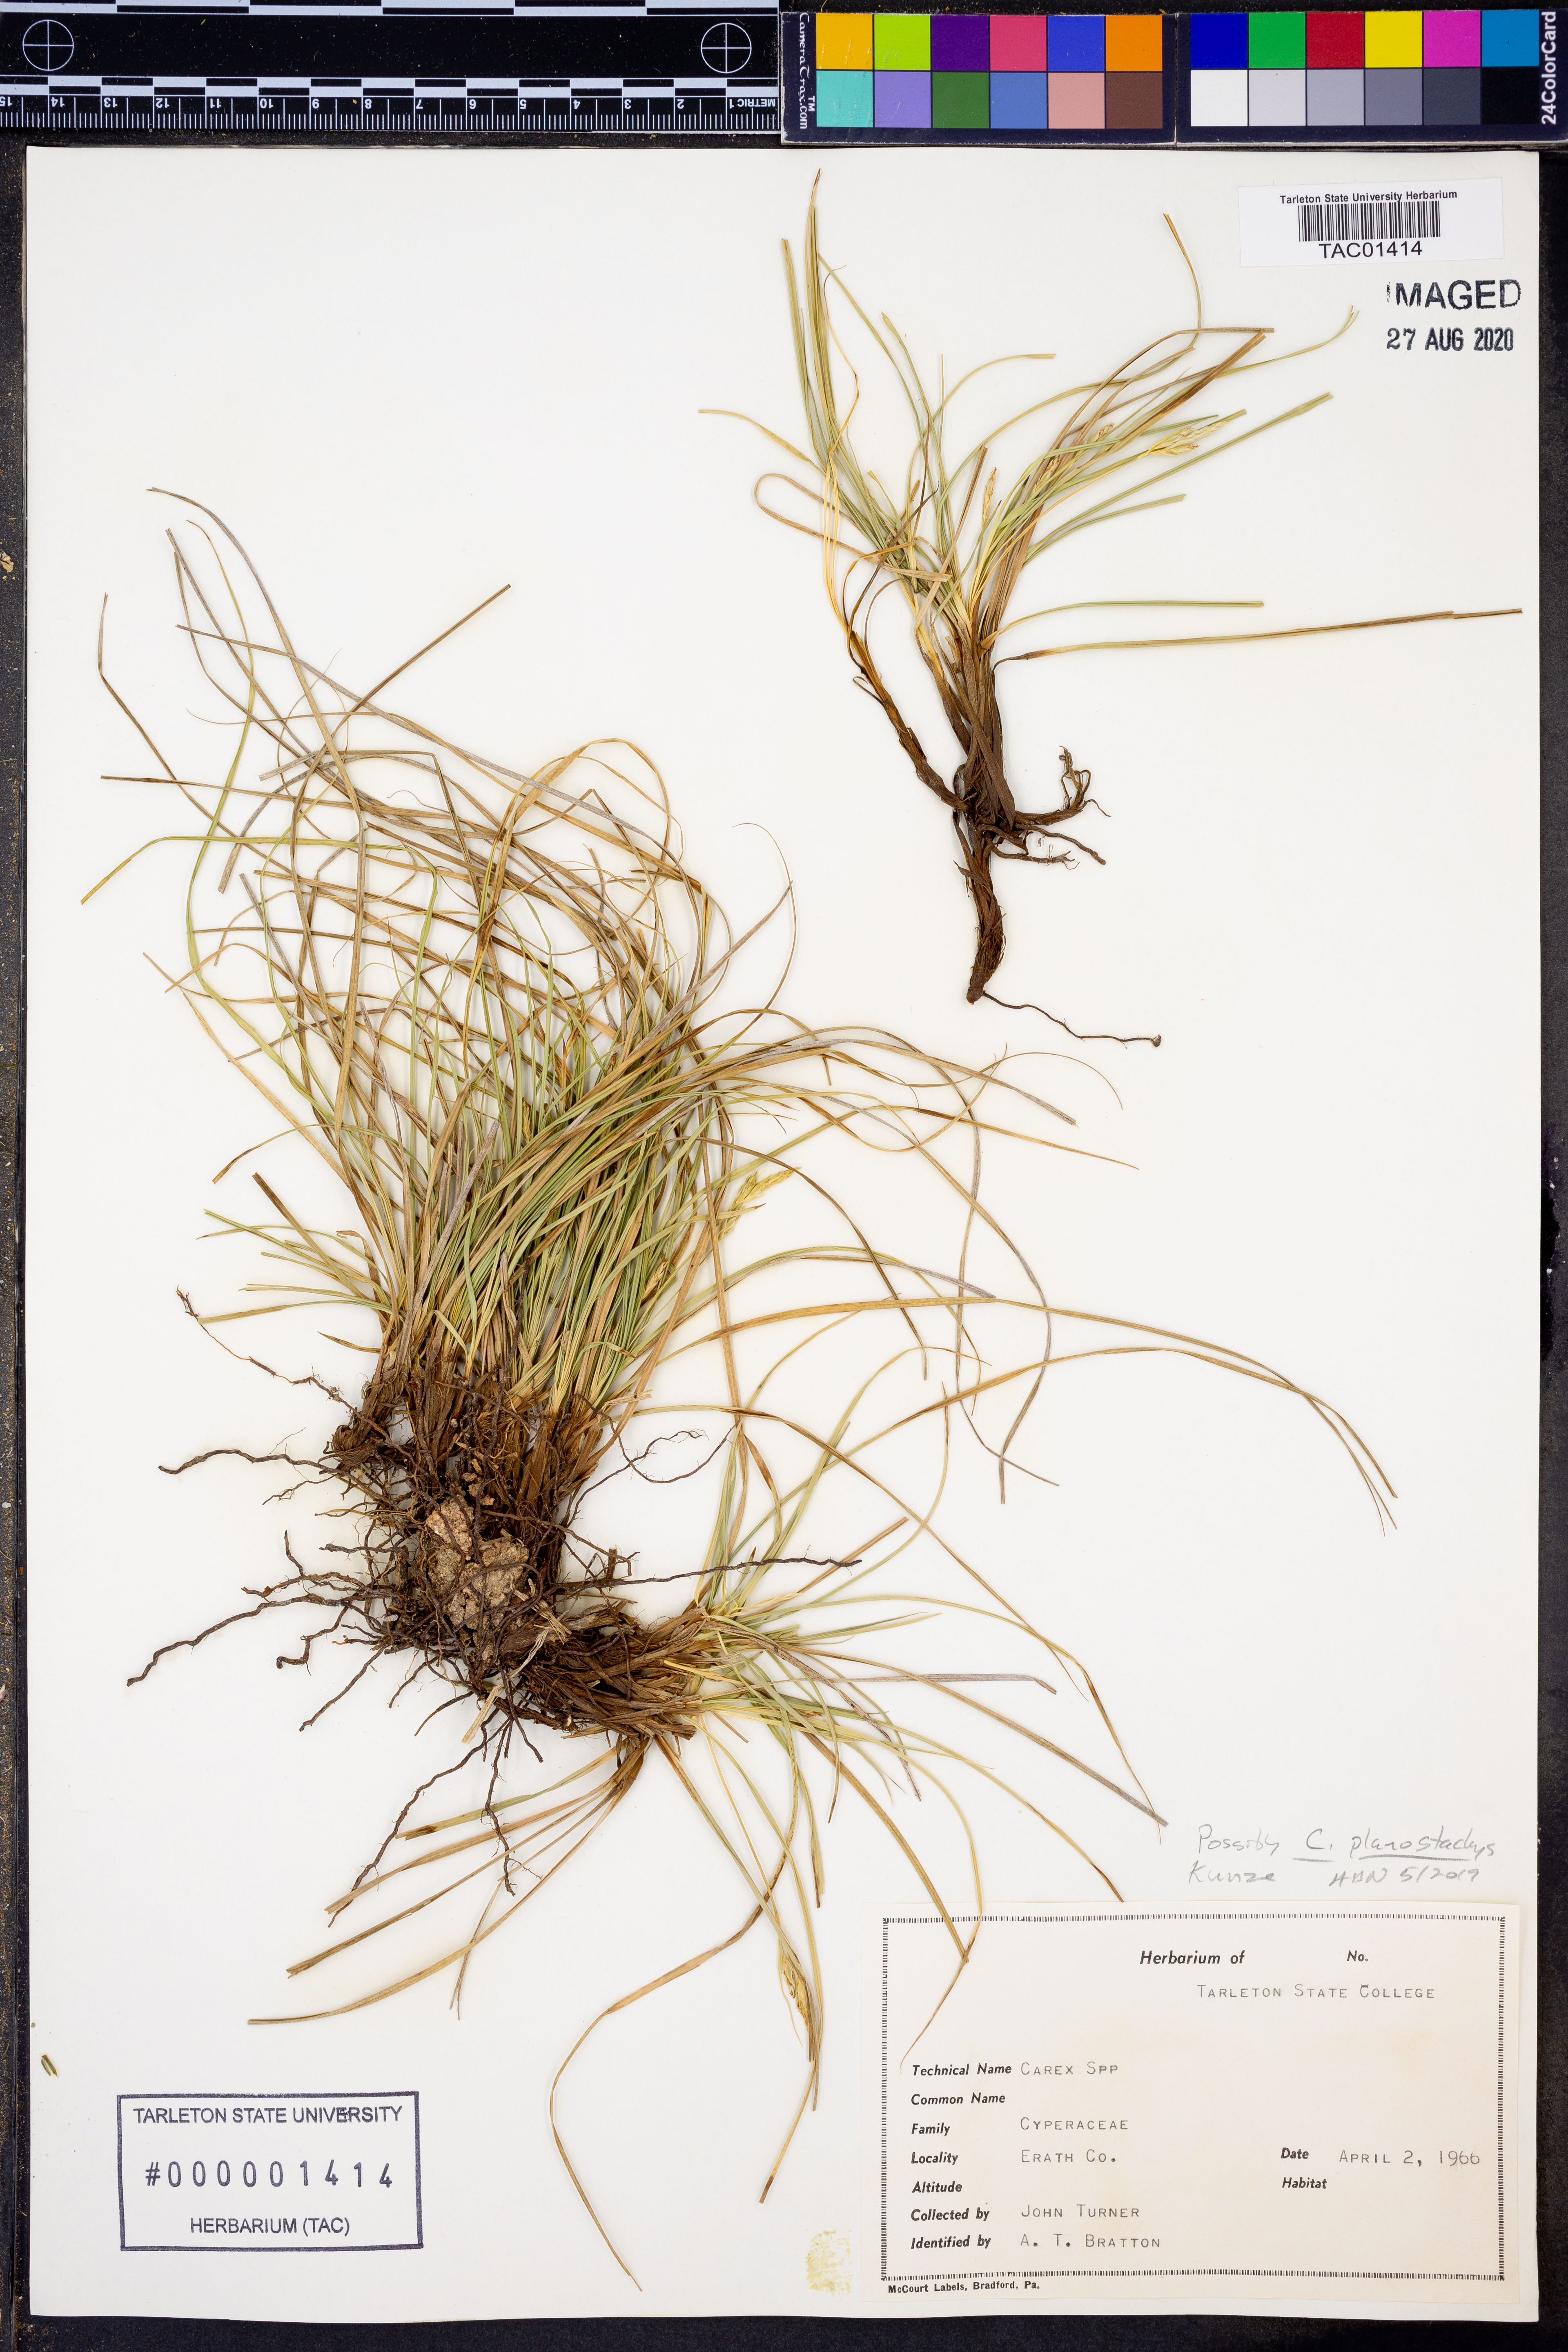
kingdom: Plantae
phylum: Tracheophyta
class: Liliopsida
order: Poales
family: Cyperaceae
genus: Carex
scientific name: Carex planostachys
